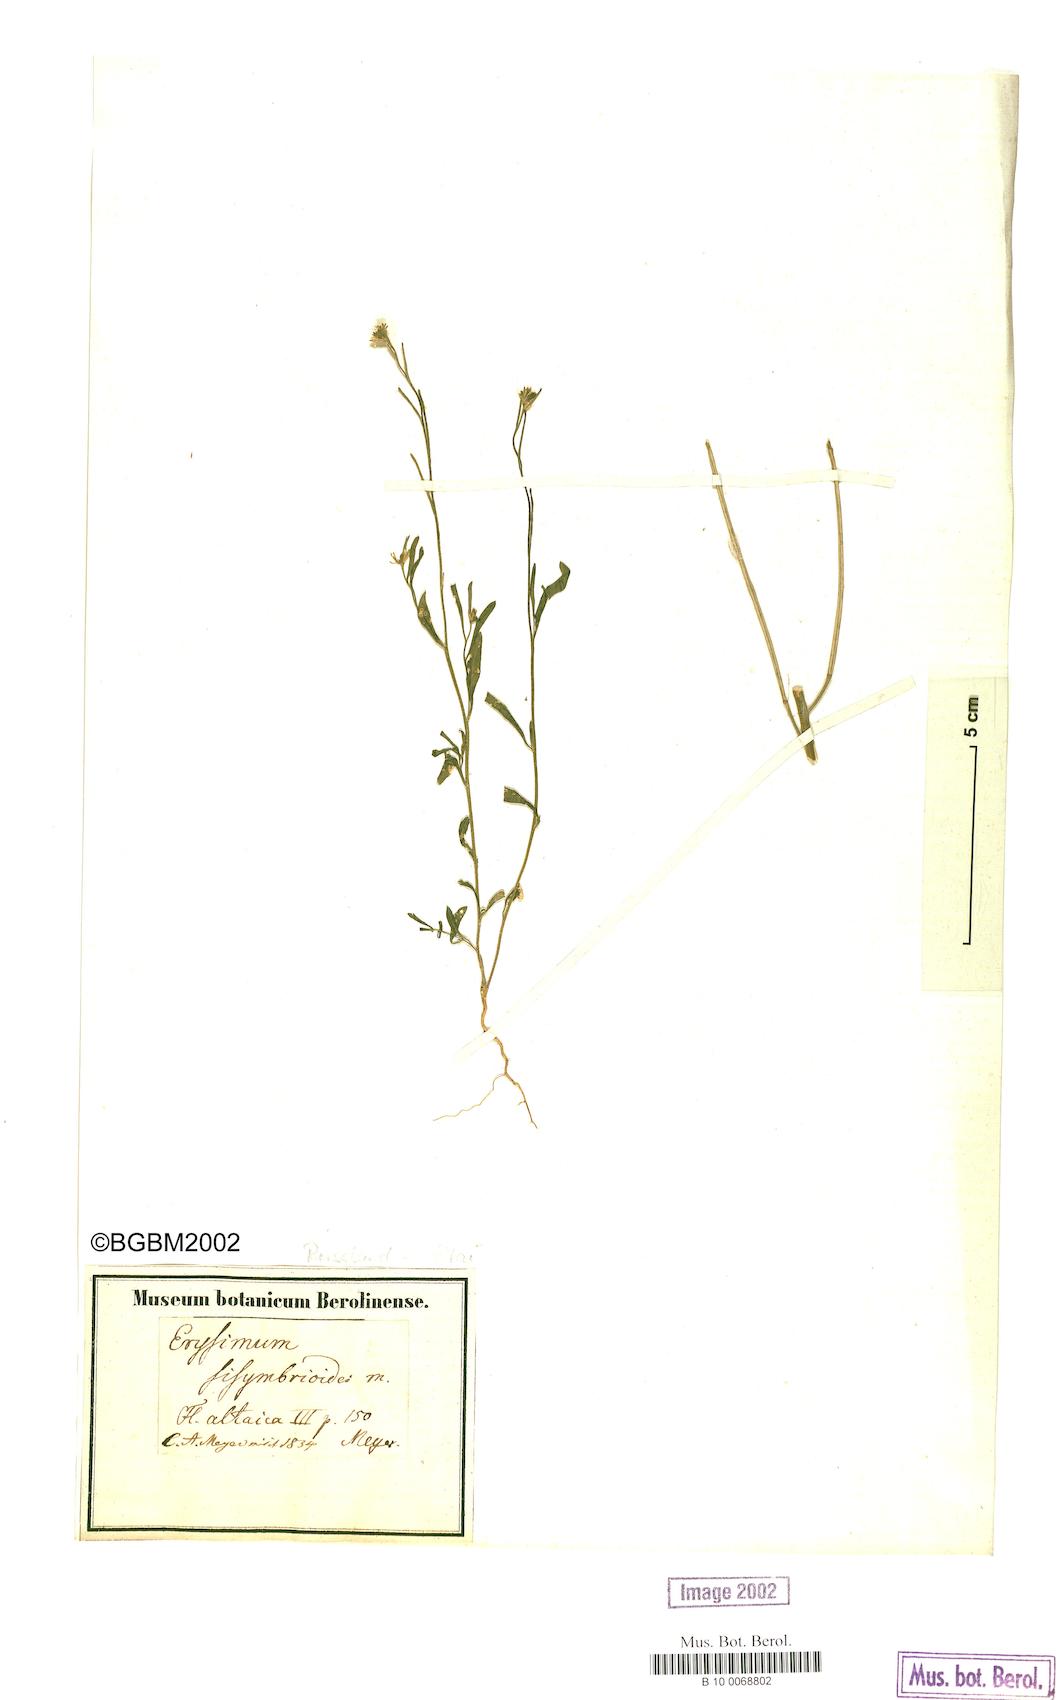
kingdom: Plantae
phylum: Tracheophyta
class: Magnoliopsida
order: Brassicales
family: Brassicaceae
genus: Erysimum
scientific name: Erysimum sisymbrioides
